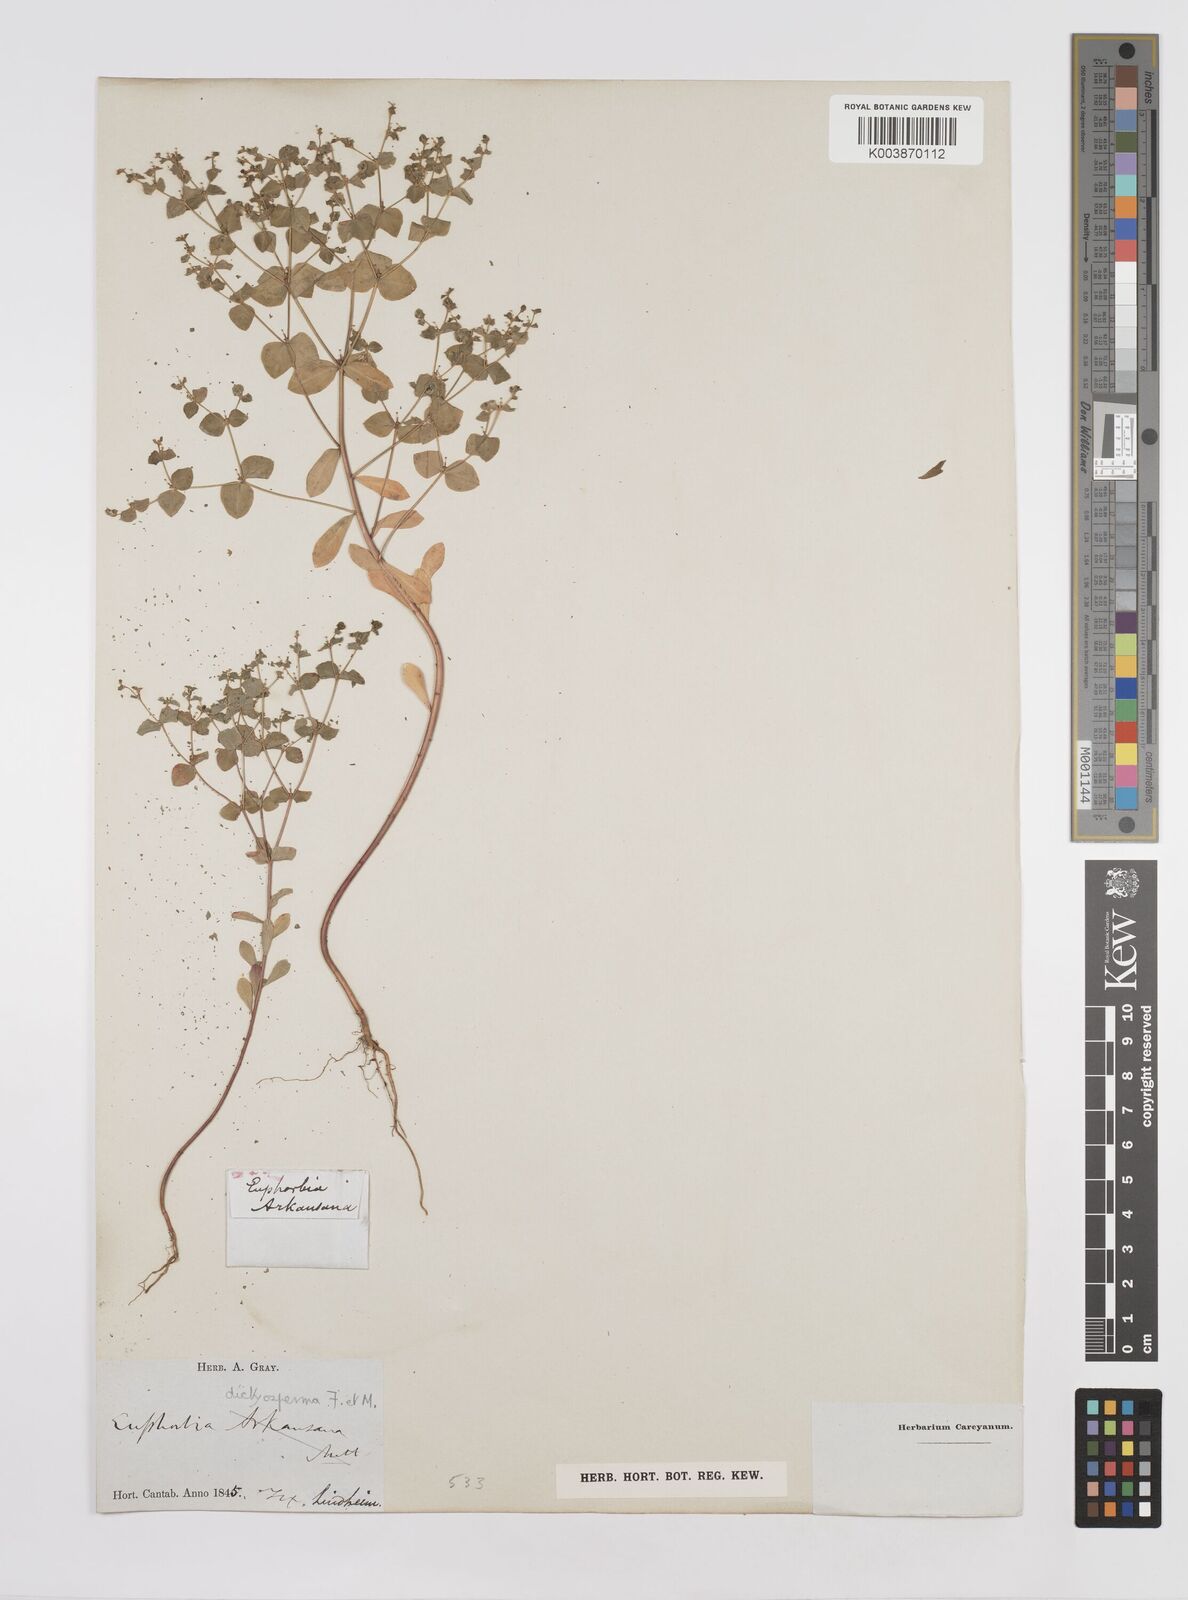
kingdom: Plantae
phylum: Tracheophyta
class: Magnoliopsida
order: Malpighiales
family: Euphorbiaceae
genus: Euphorbia
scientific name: Euphorbia spathulata
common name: Blunt spurge
